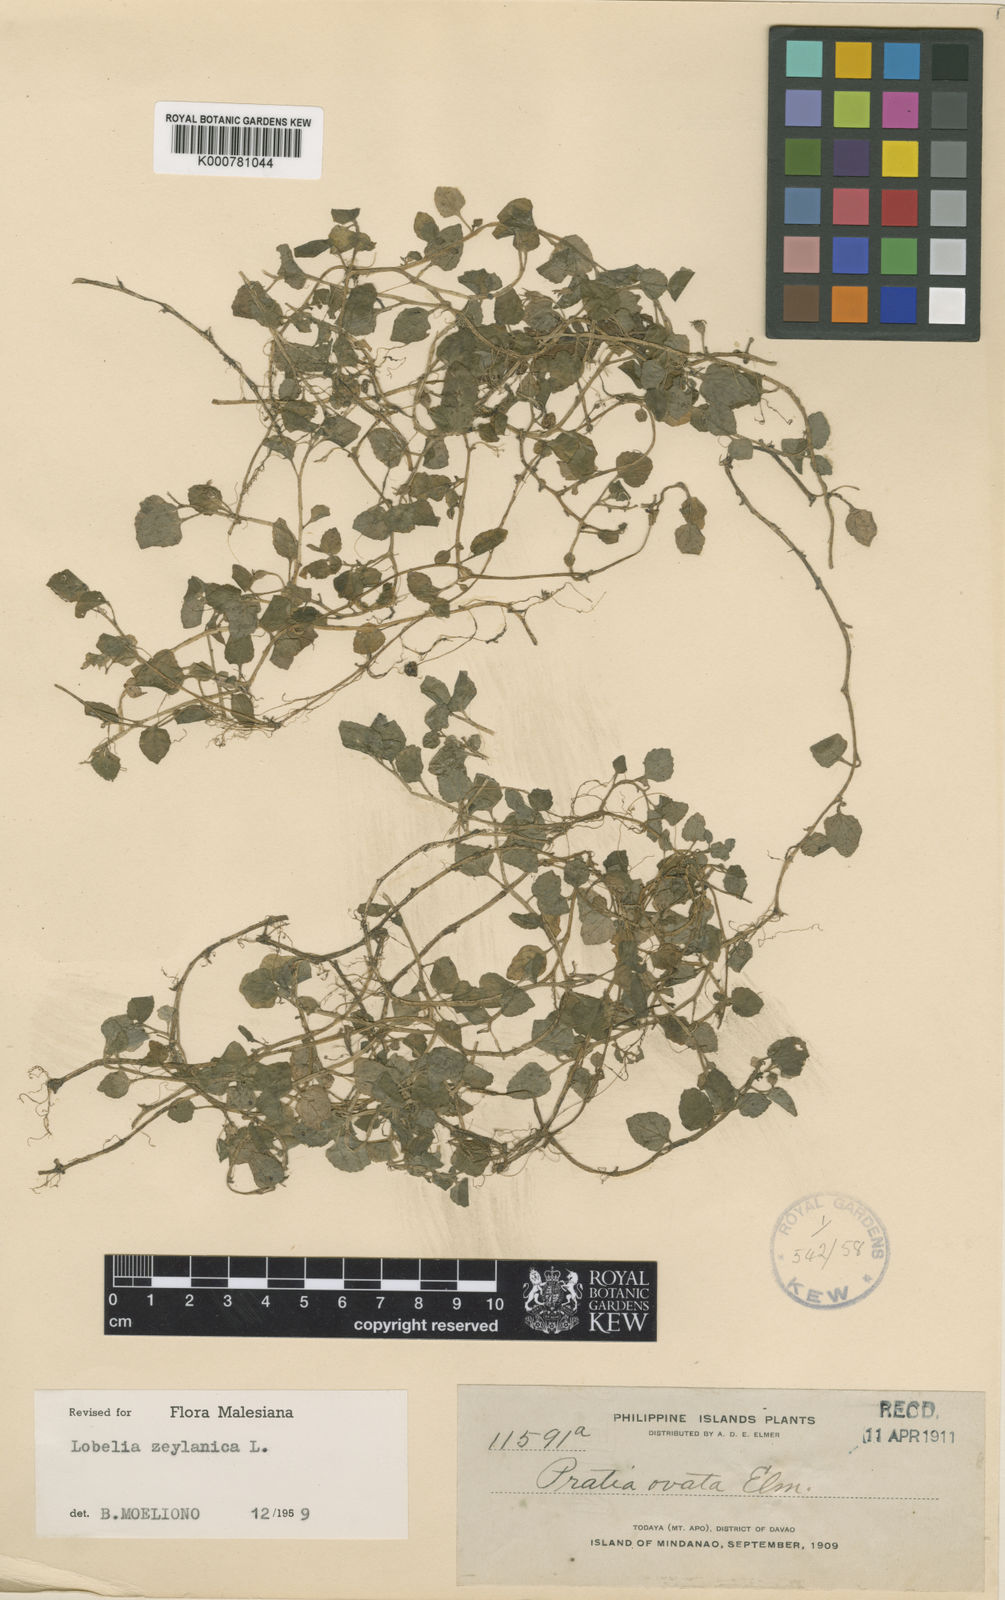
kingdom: Plantae
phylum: Tracheophyta
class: Magnoliopsida
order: Asterales
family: Campanulaceae
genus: Lobelia
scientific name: Lobelia zeylanica
